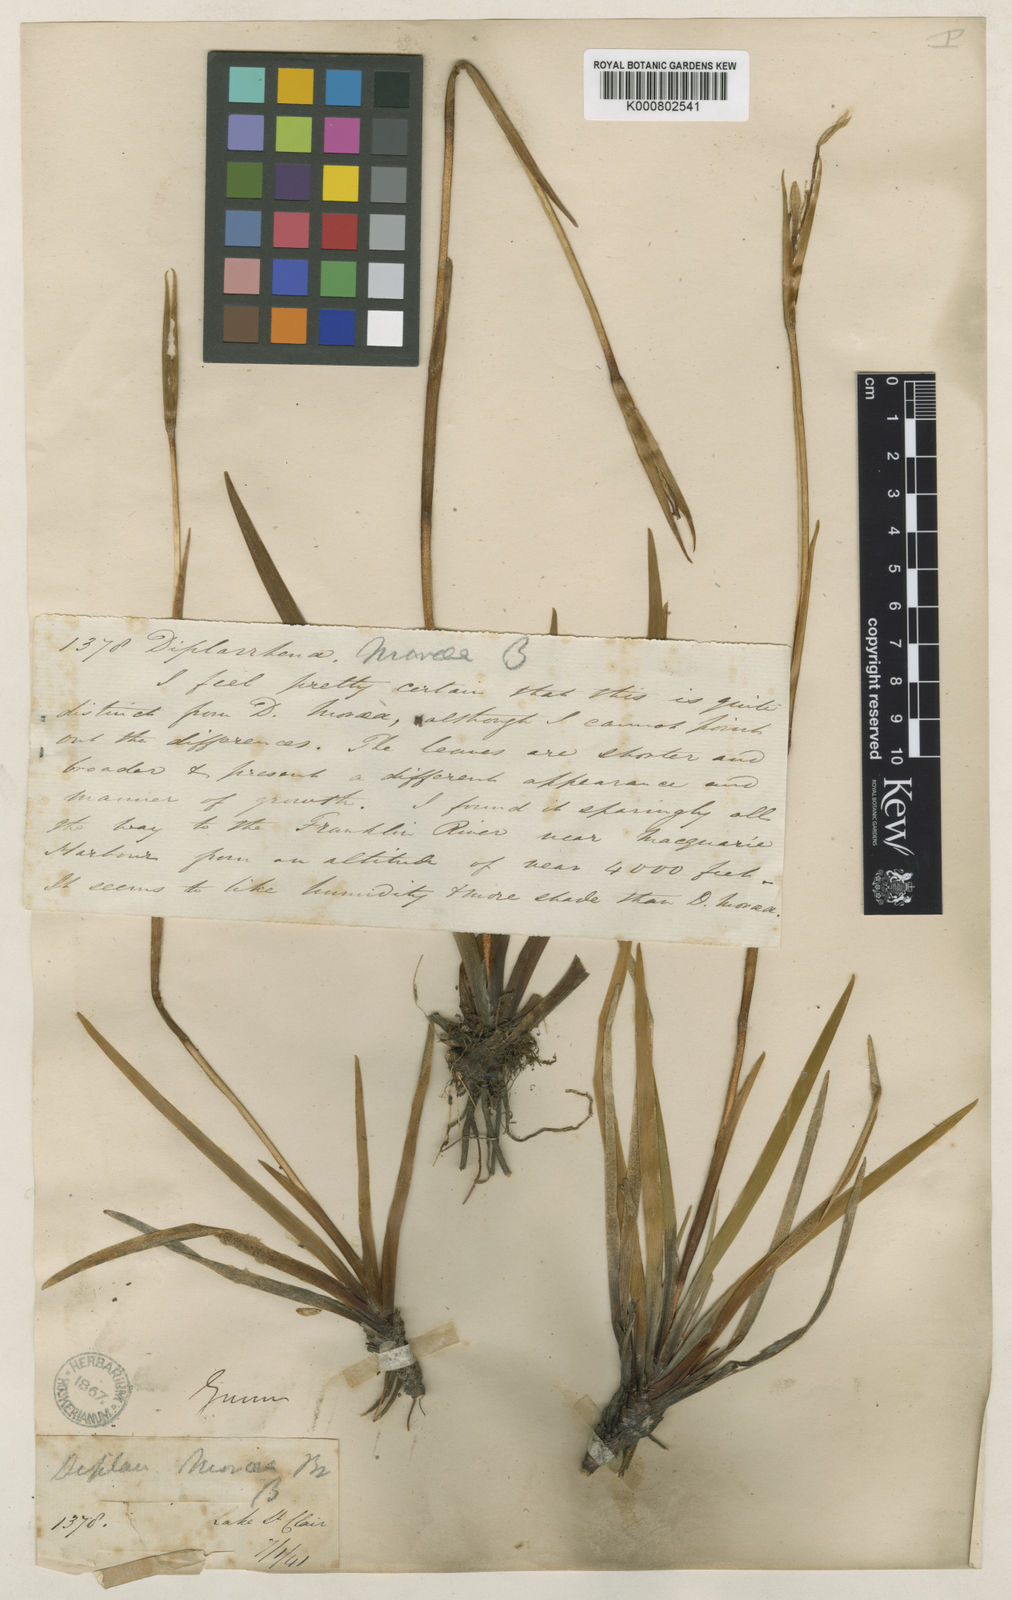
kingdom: Plantae
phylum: Tracheophyta
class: Liliopsida
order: Asparagales
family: Iridaceae
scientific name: Iridaceae
